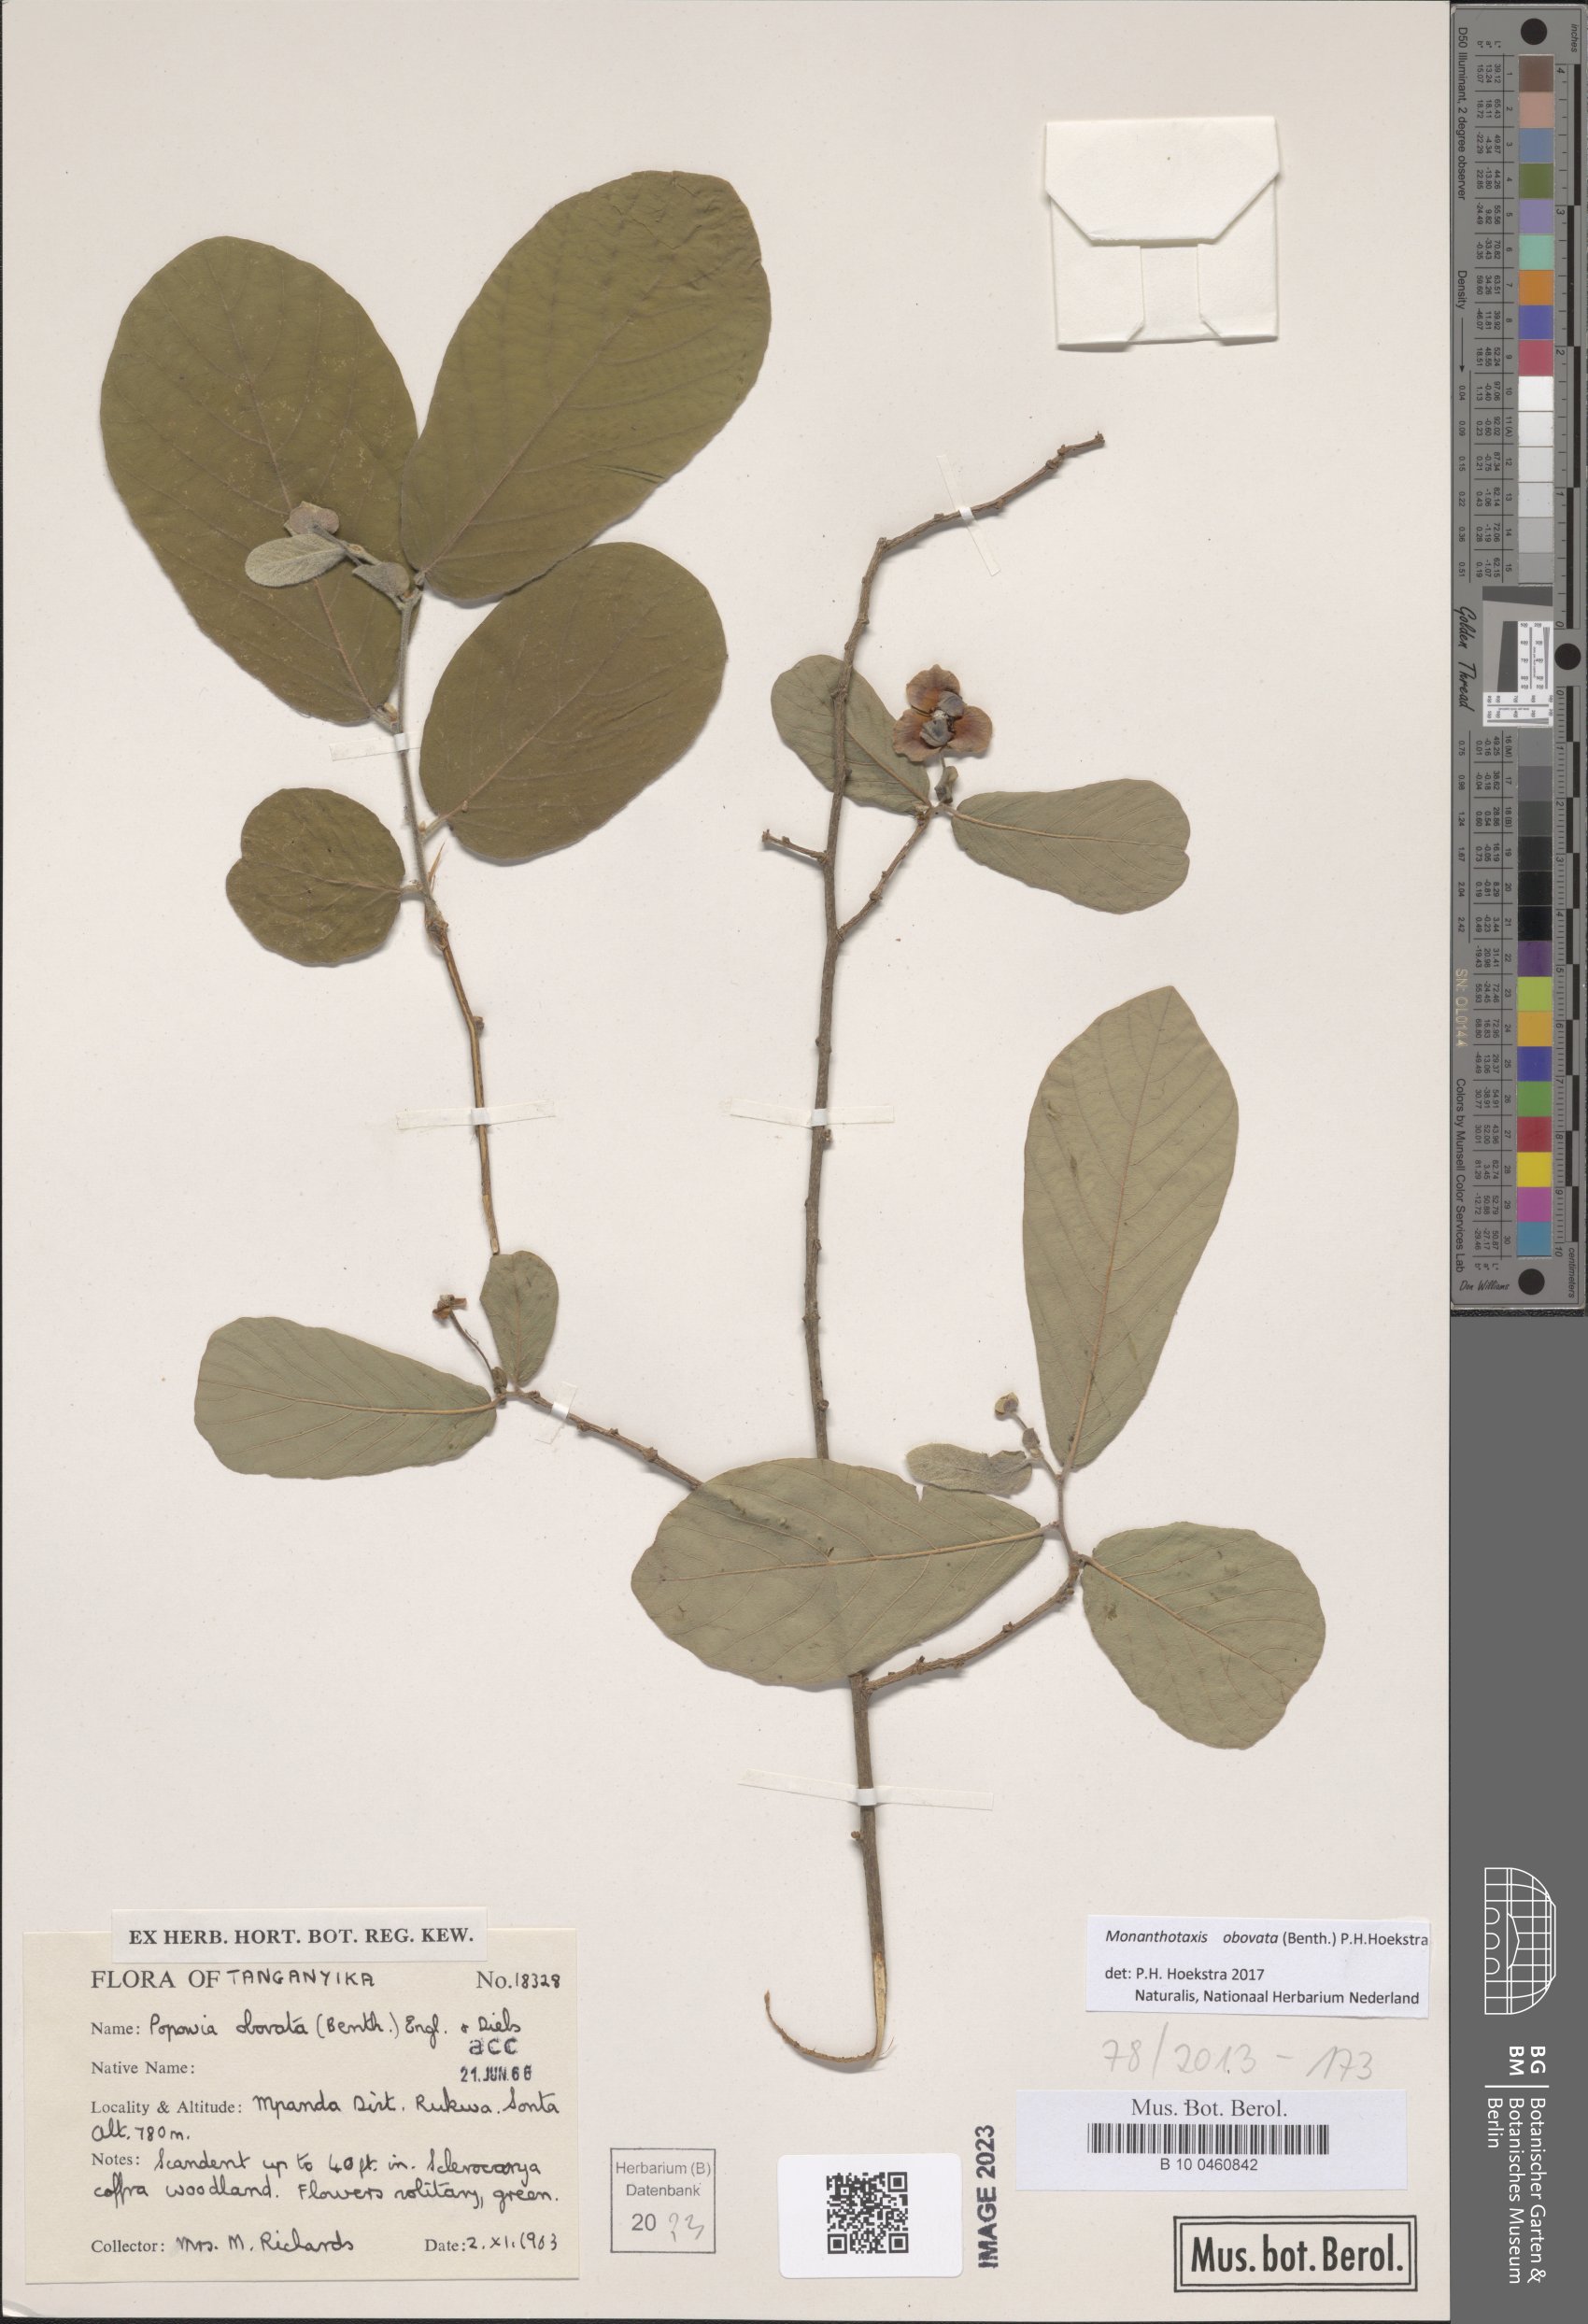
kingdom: Plantae
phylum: Tracheophyta
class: Magnoliopsida
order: Magnoliales
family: Annonaceae
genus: Friesodielsia
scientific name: Friesodielsia obovata
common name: Monkey fingers
